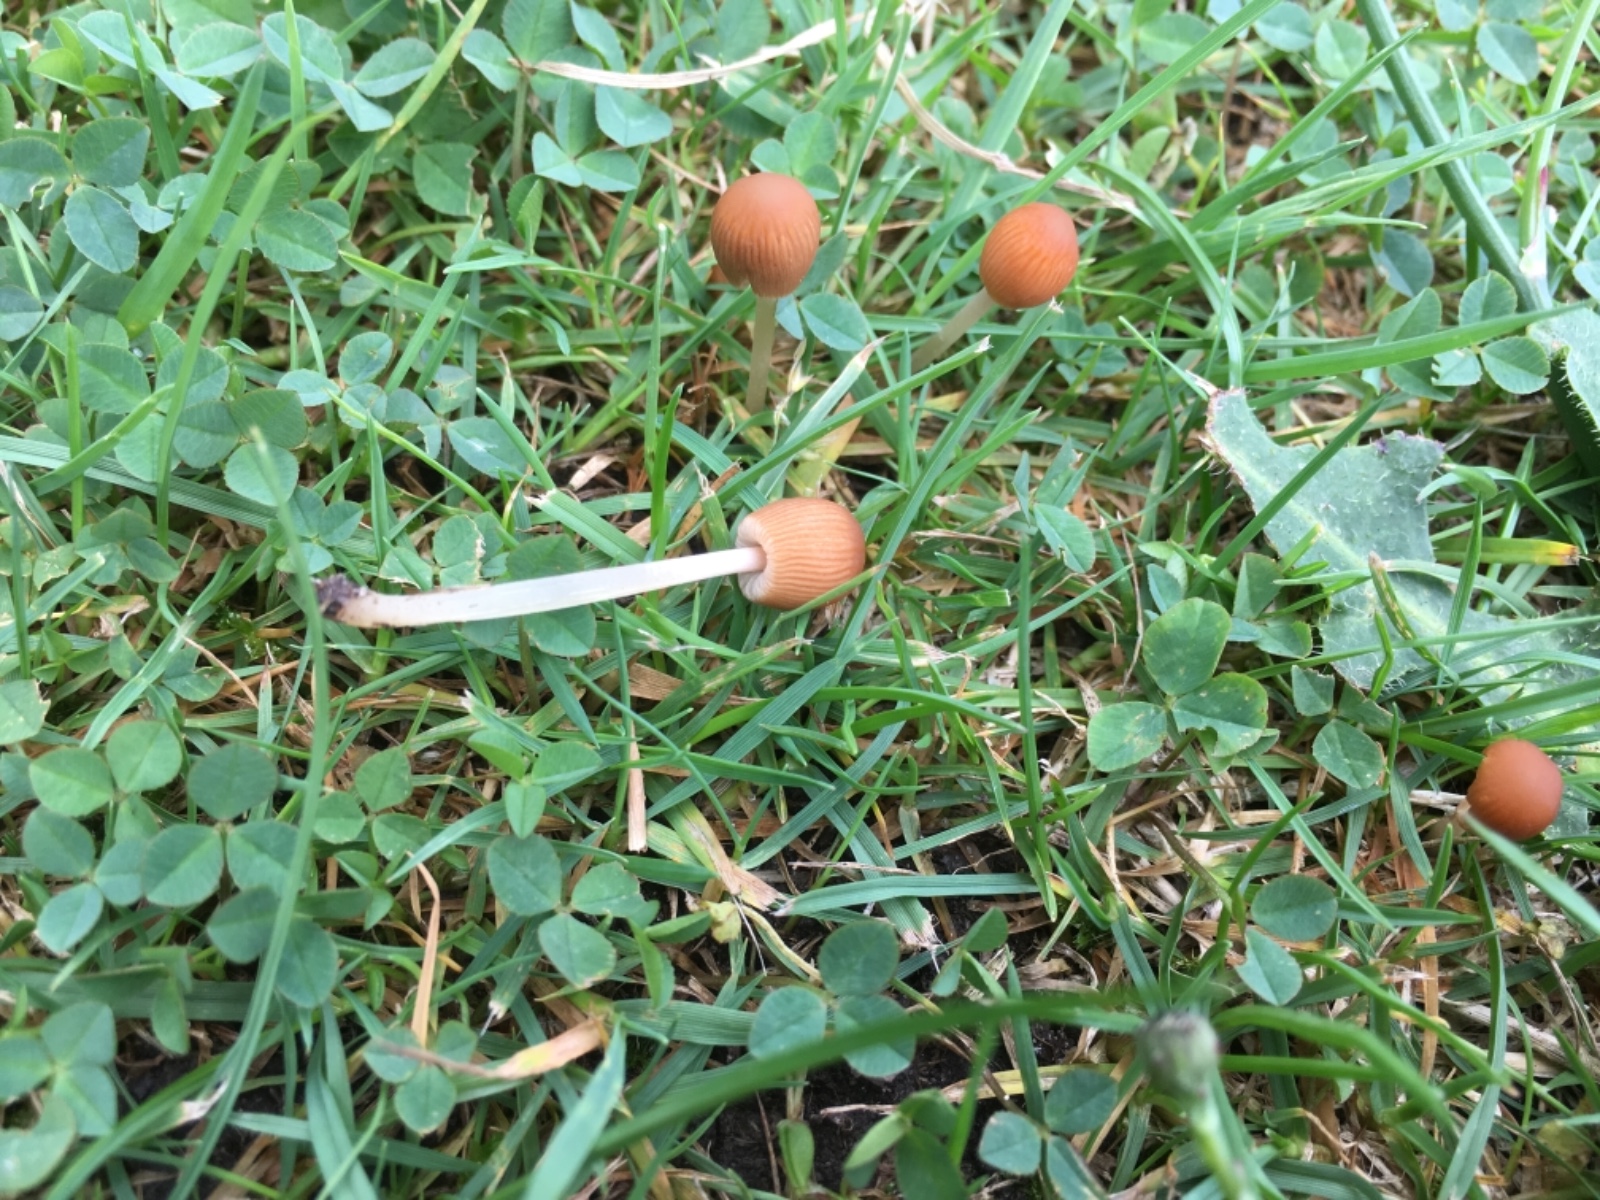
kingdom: Fungi
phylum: Basidiomycota
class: Agaricomycetes
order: Agaricales
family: Psathyrellaceae
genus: Parasola
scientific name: Parasola
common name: hjulhat
